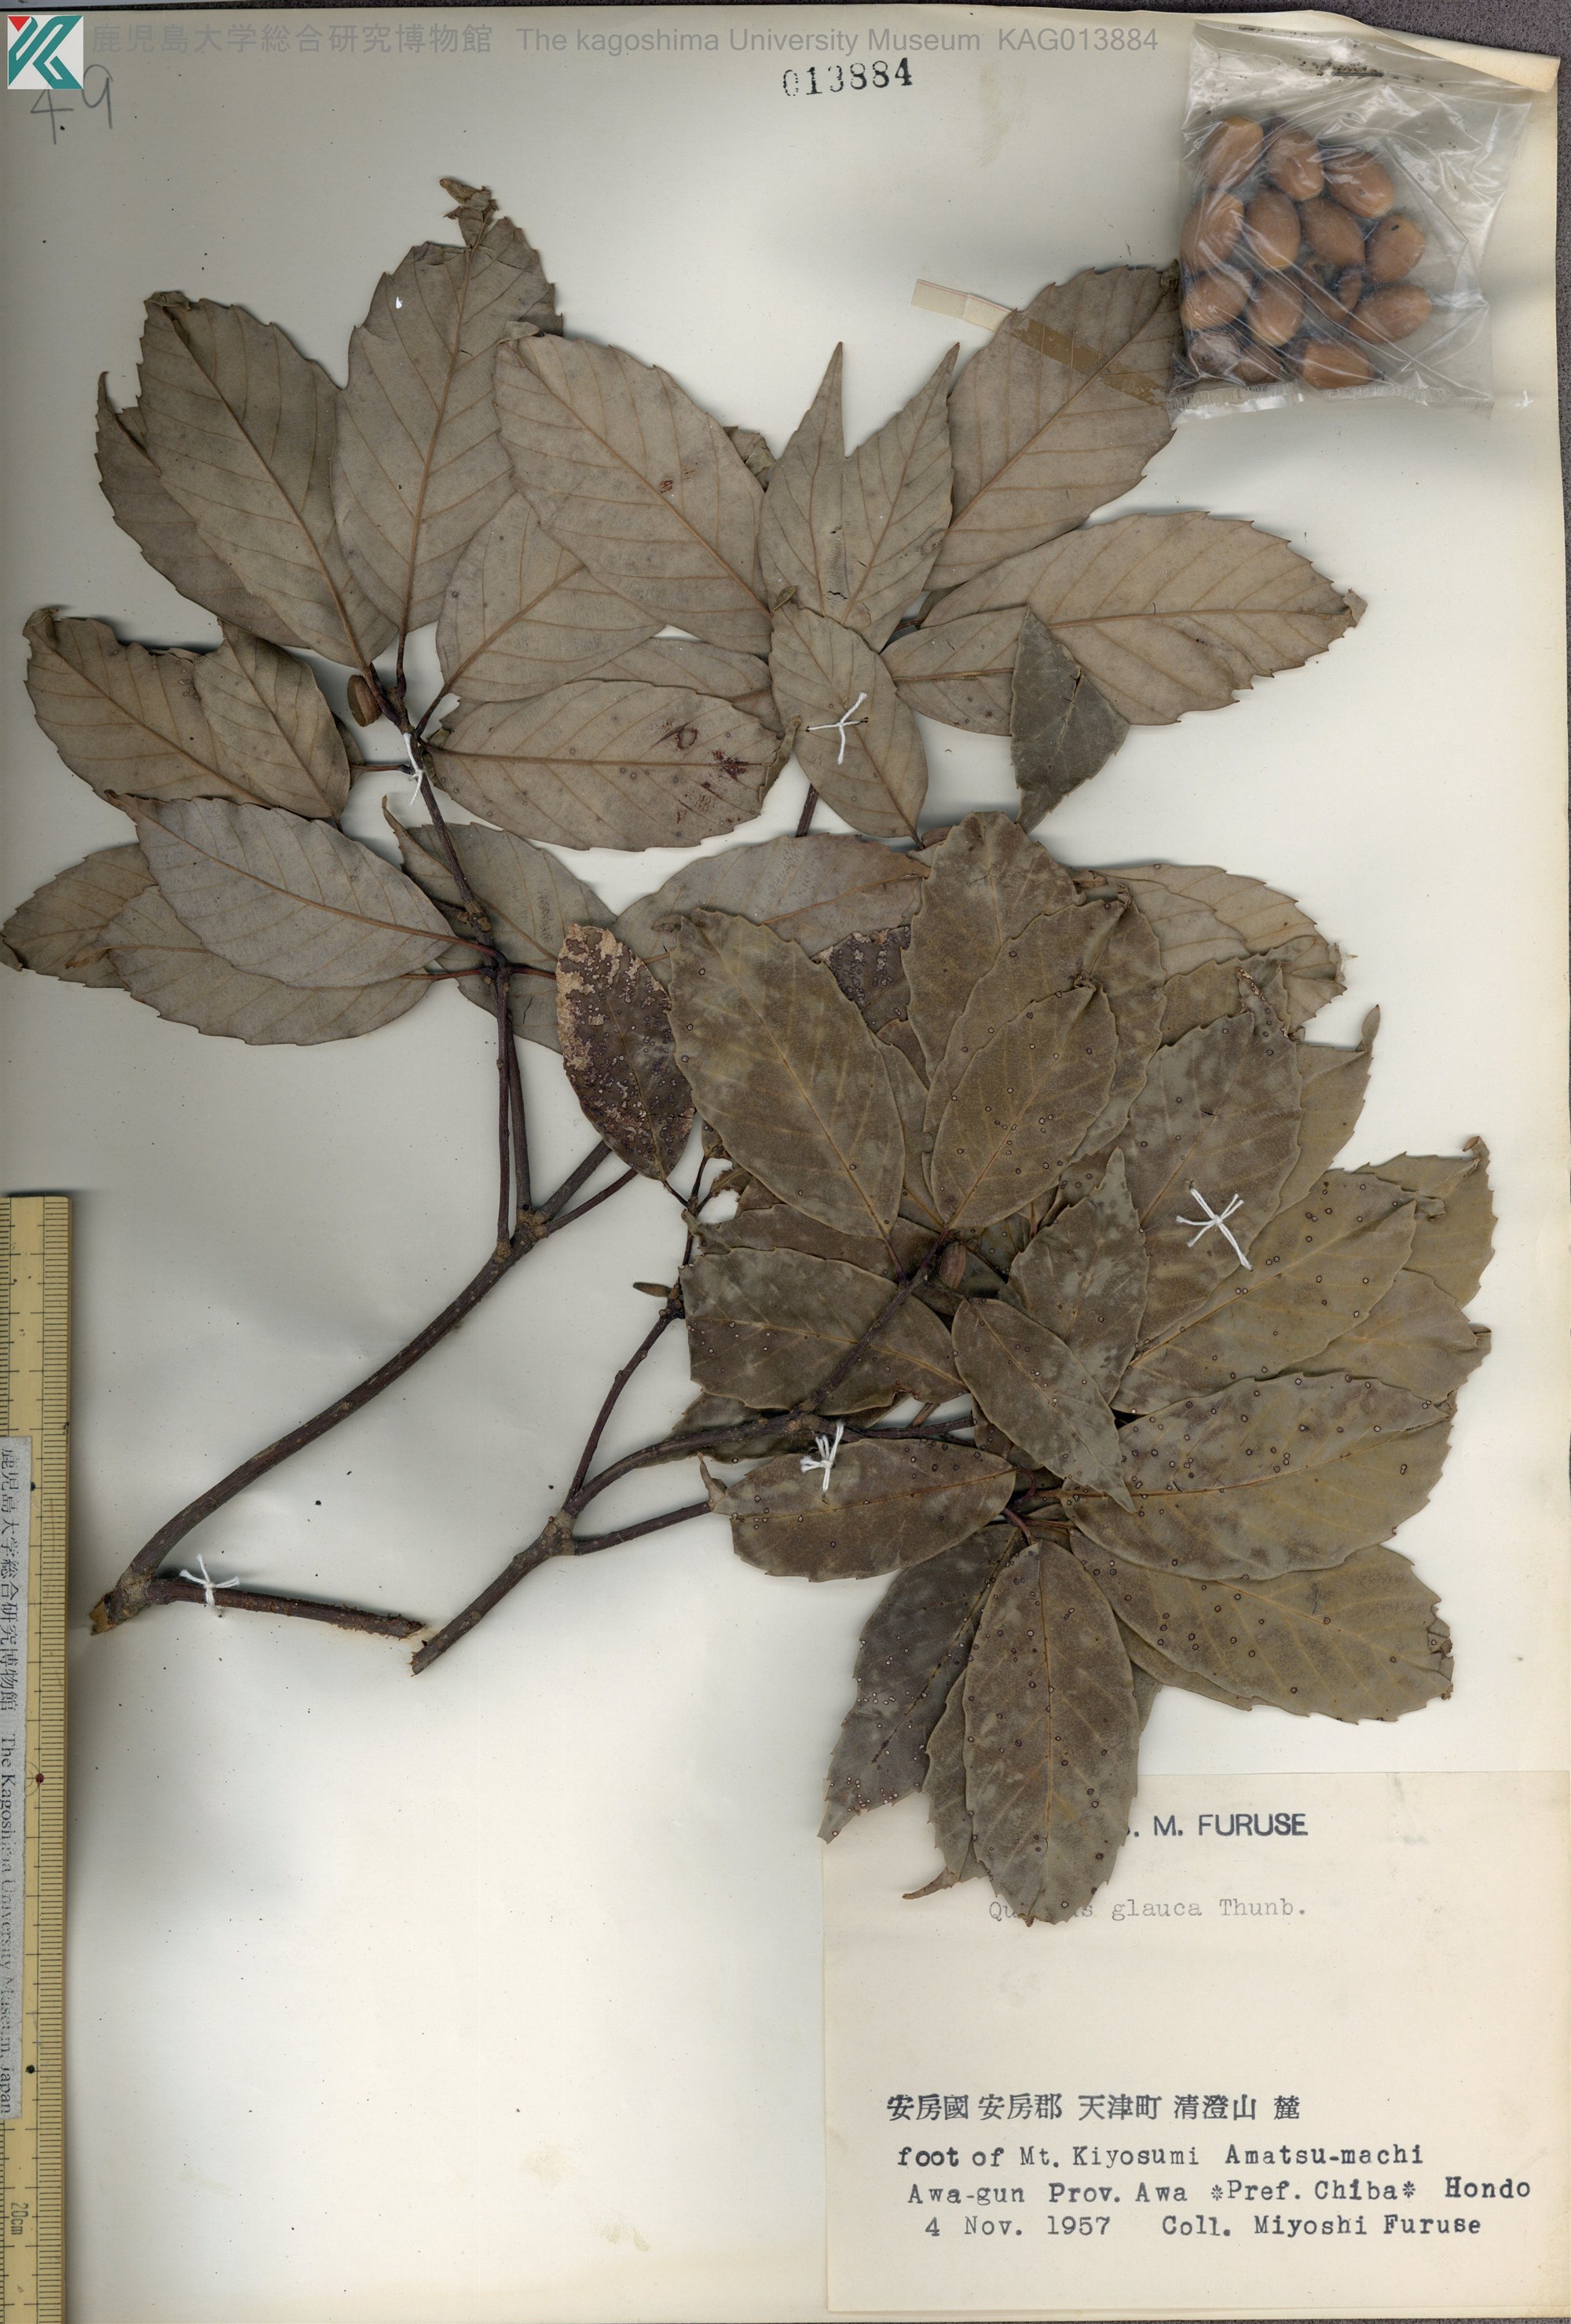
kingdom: Plantae
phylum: Tracheophyta
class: Magnoliopsida
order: Fagales
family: Fagaceae
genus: Quercus
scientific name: Quercus glauca
